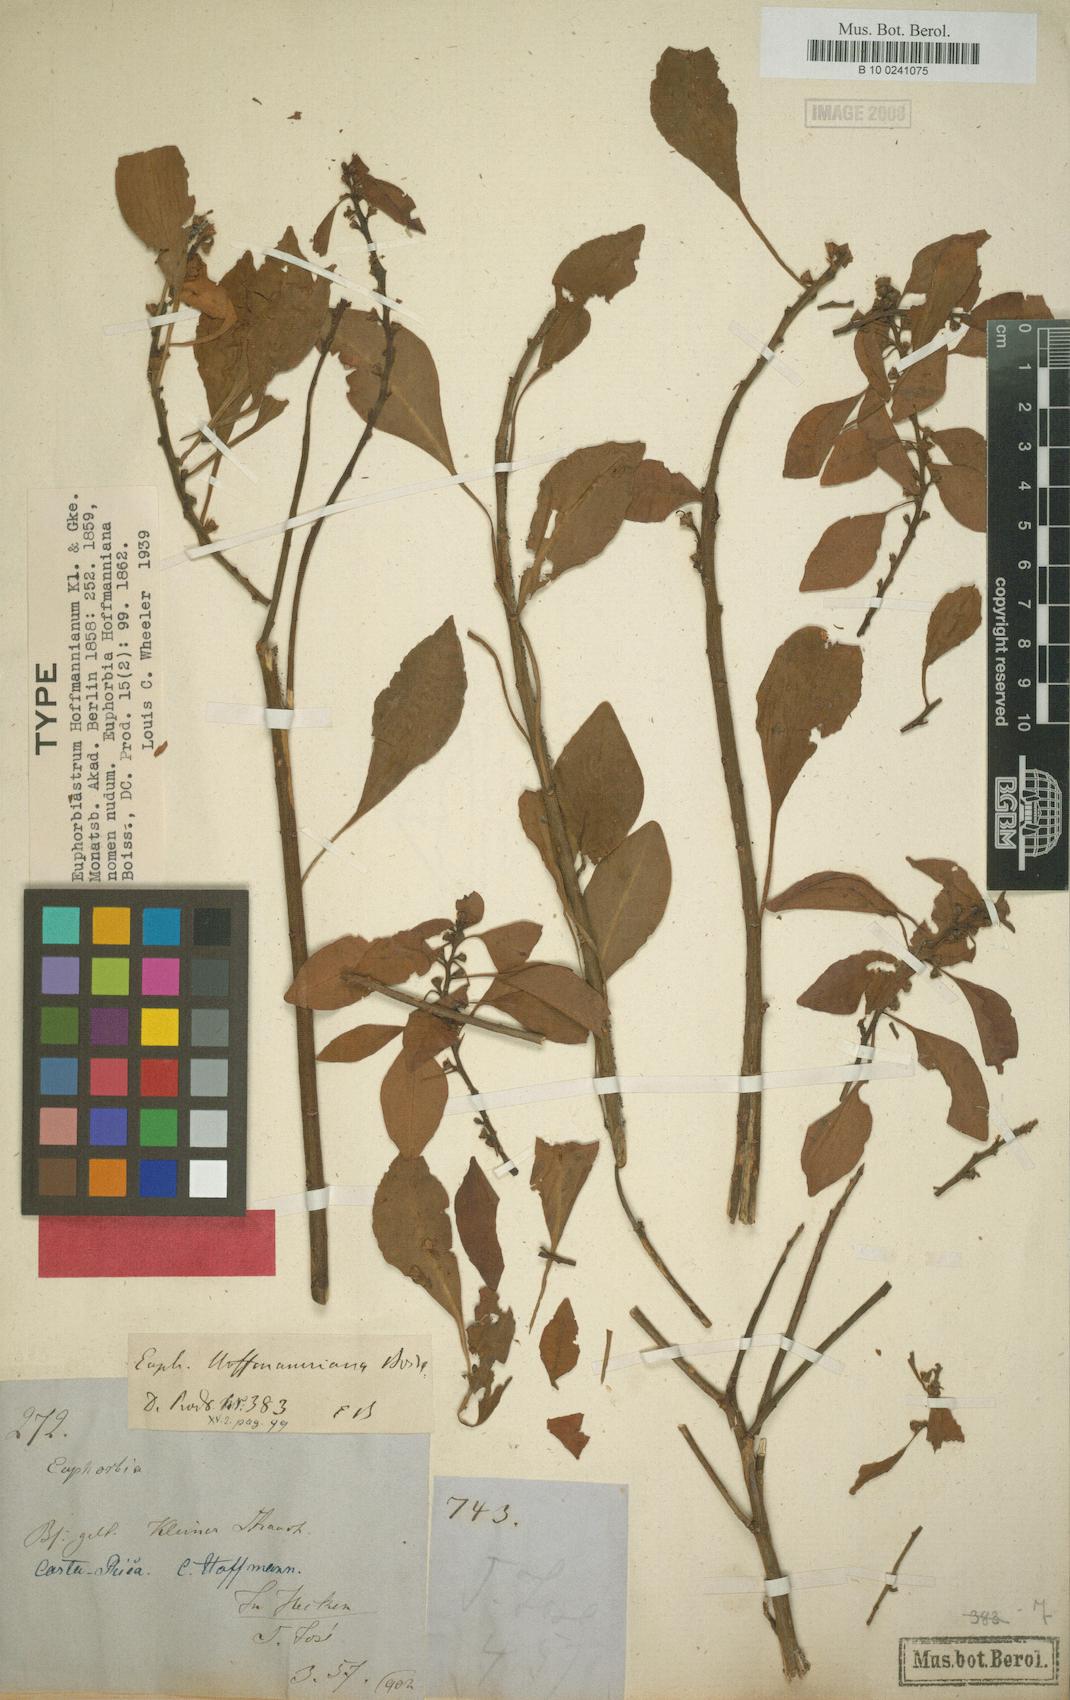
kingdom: Plantae
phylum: Tracheophyta
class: Magnoliopsida
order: Malpighiales
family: Euphorbiaceae
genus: Euphorbia
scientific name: Euphorbia hoffmanniana
